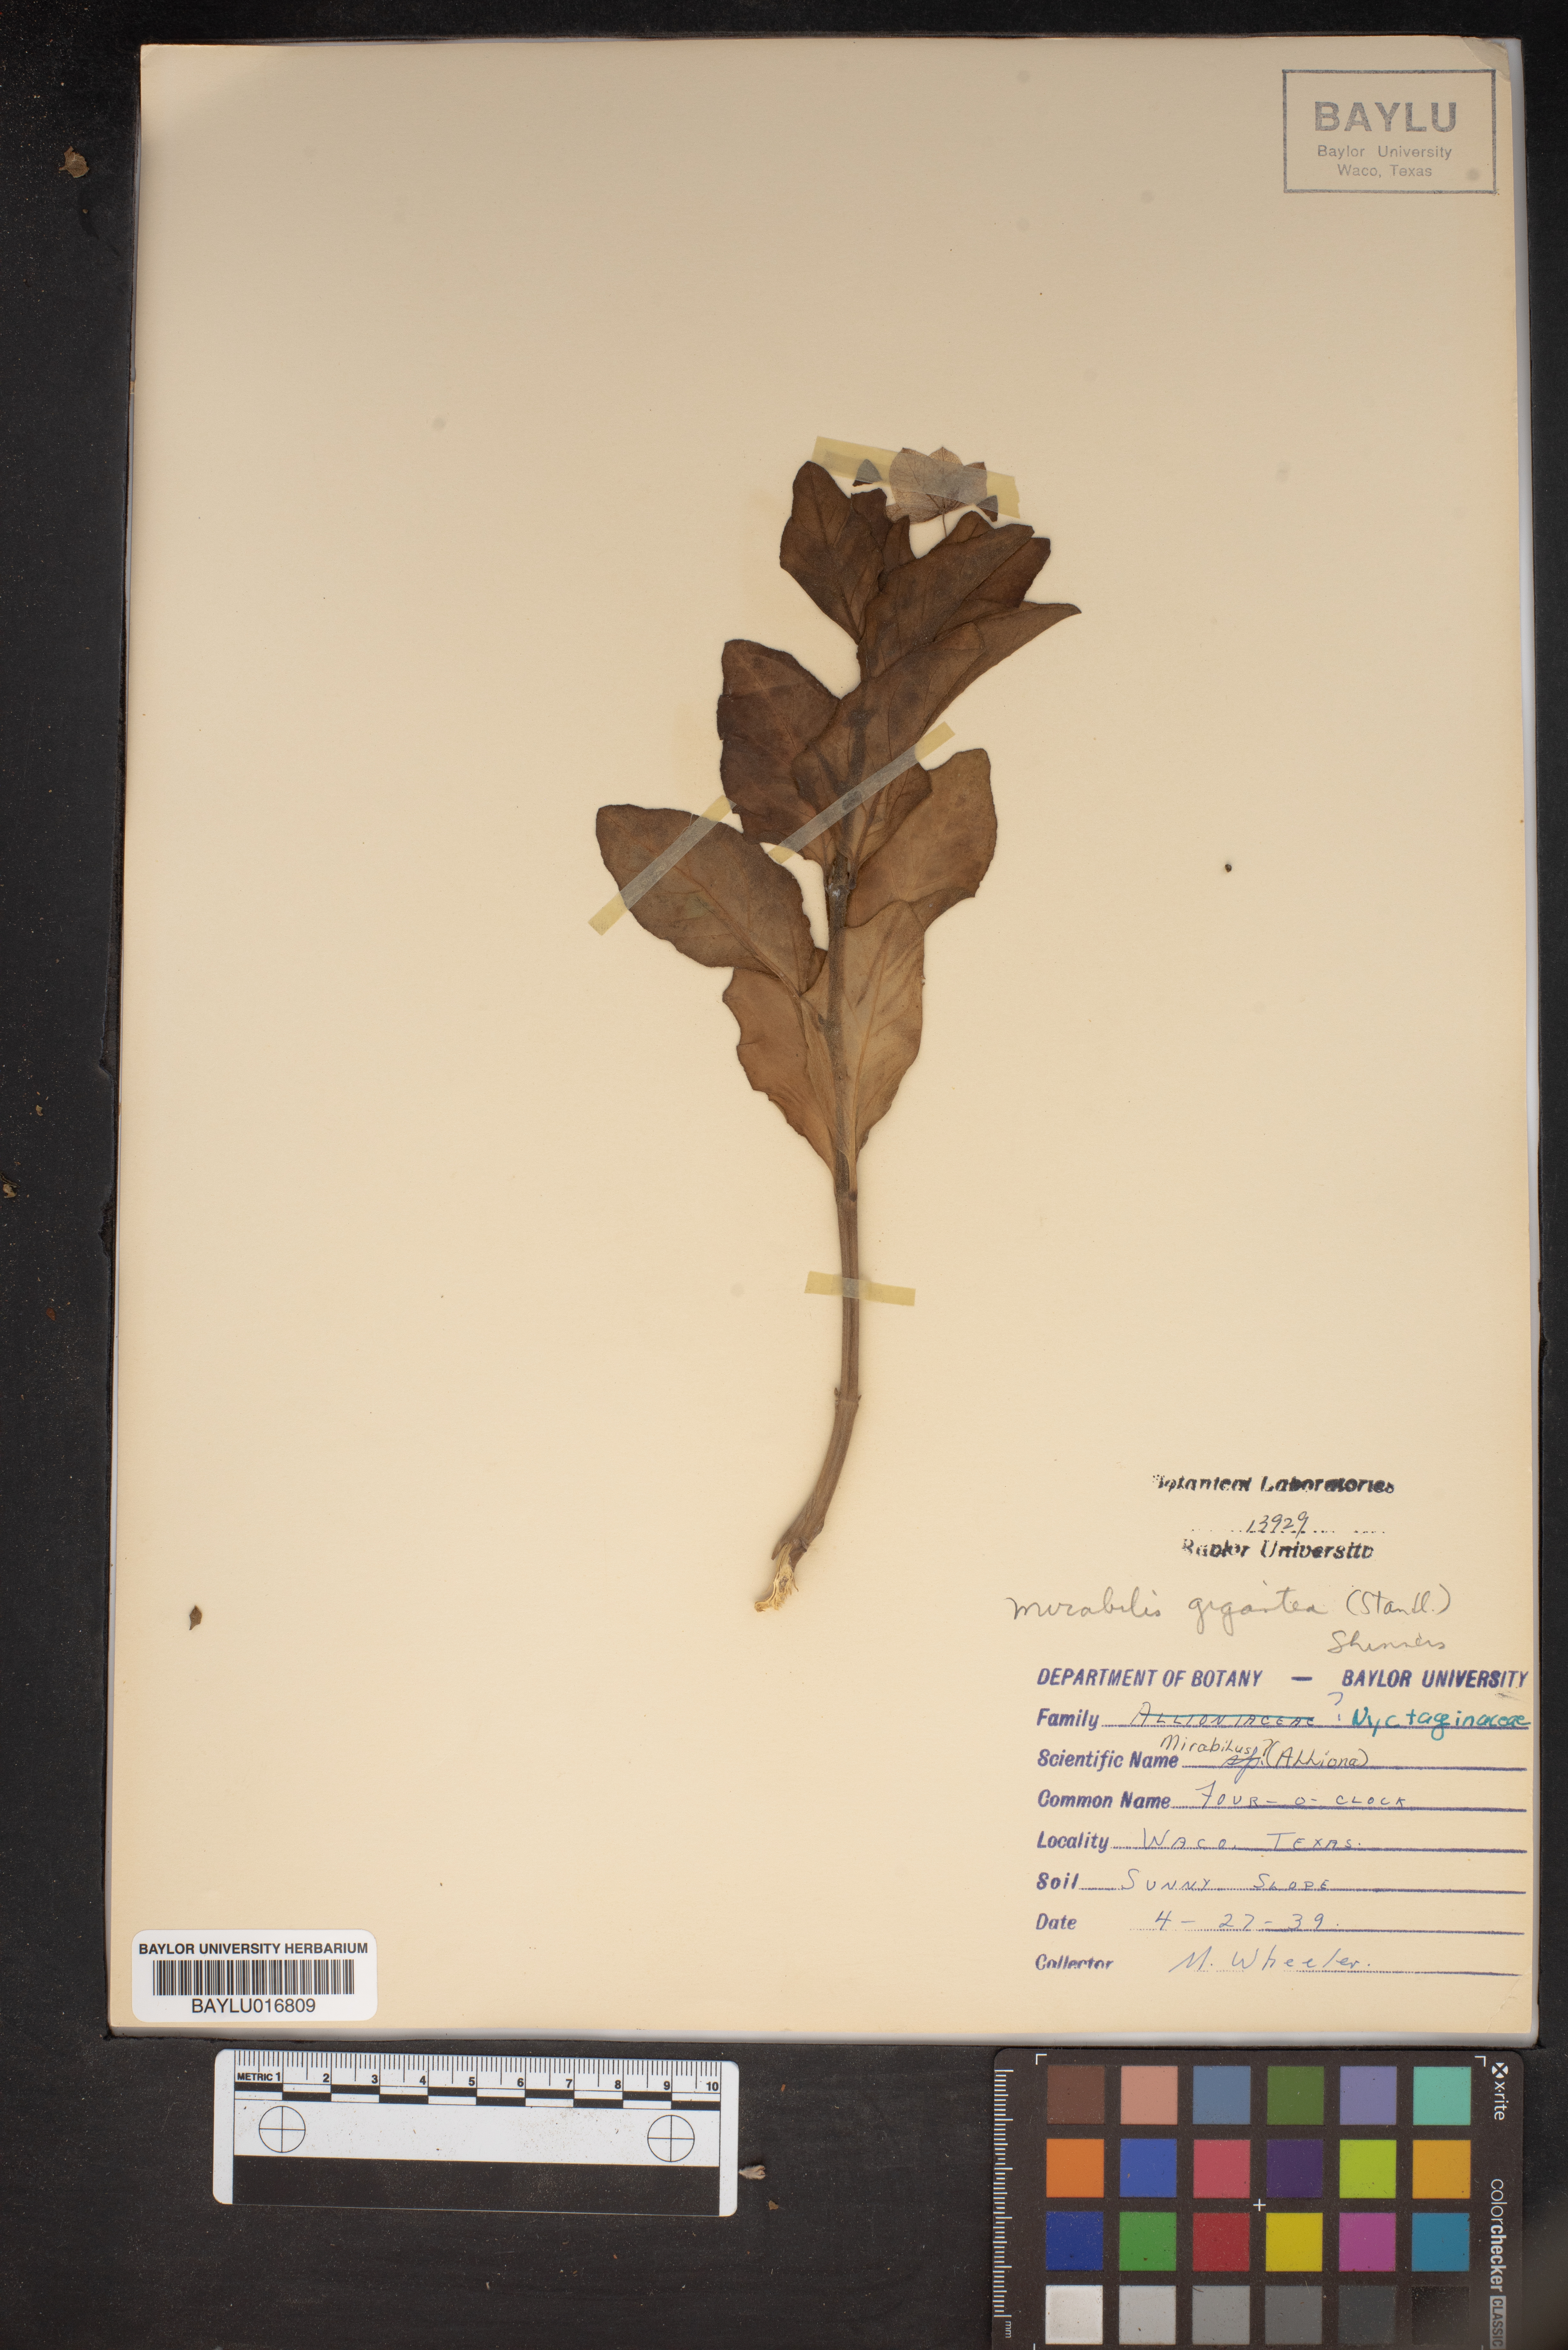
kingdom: Plantae
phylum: Tracheophyta
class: Magnoliopsida
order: Caryophyllales
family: Nyctaginaceae
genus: Mirabilis
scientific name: Mirabilis gigantea
